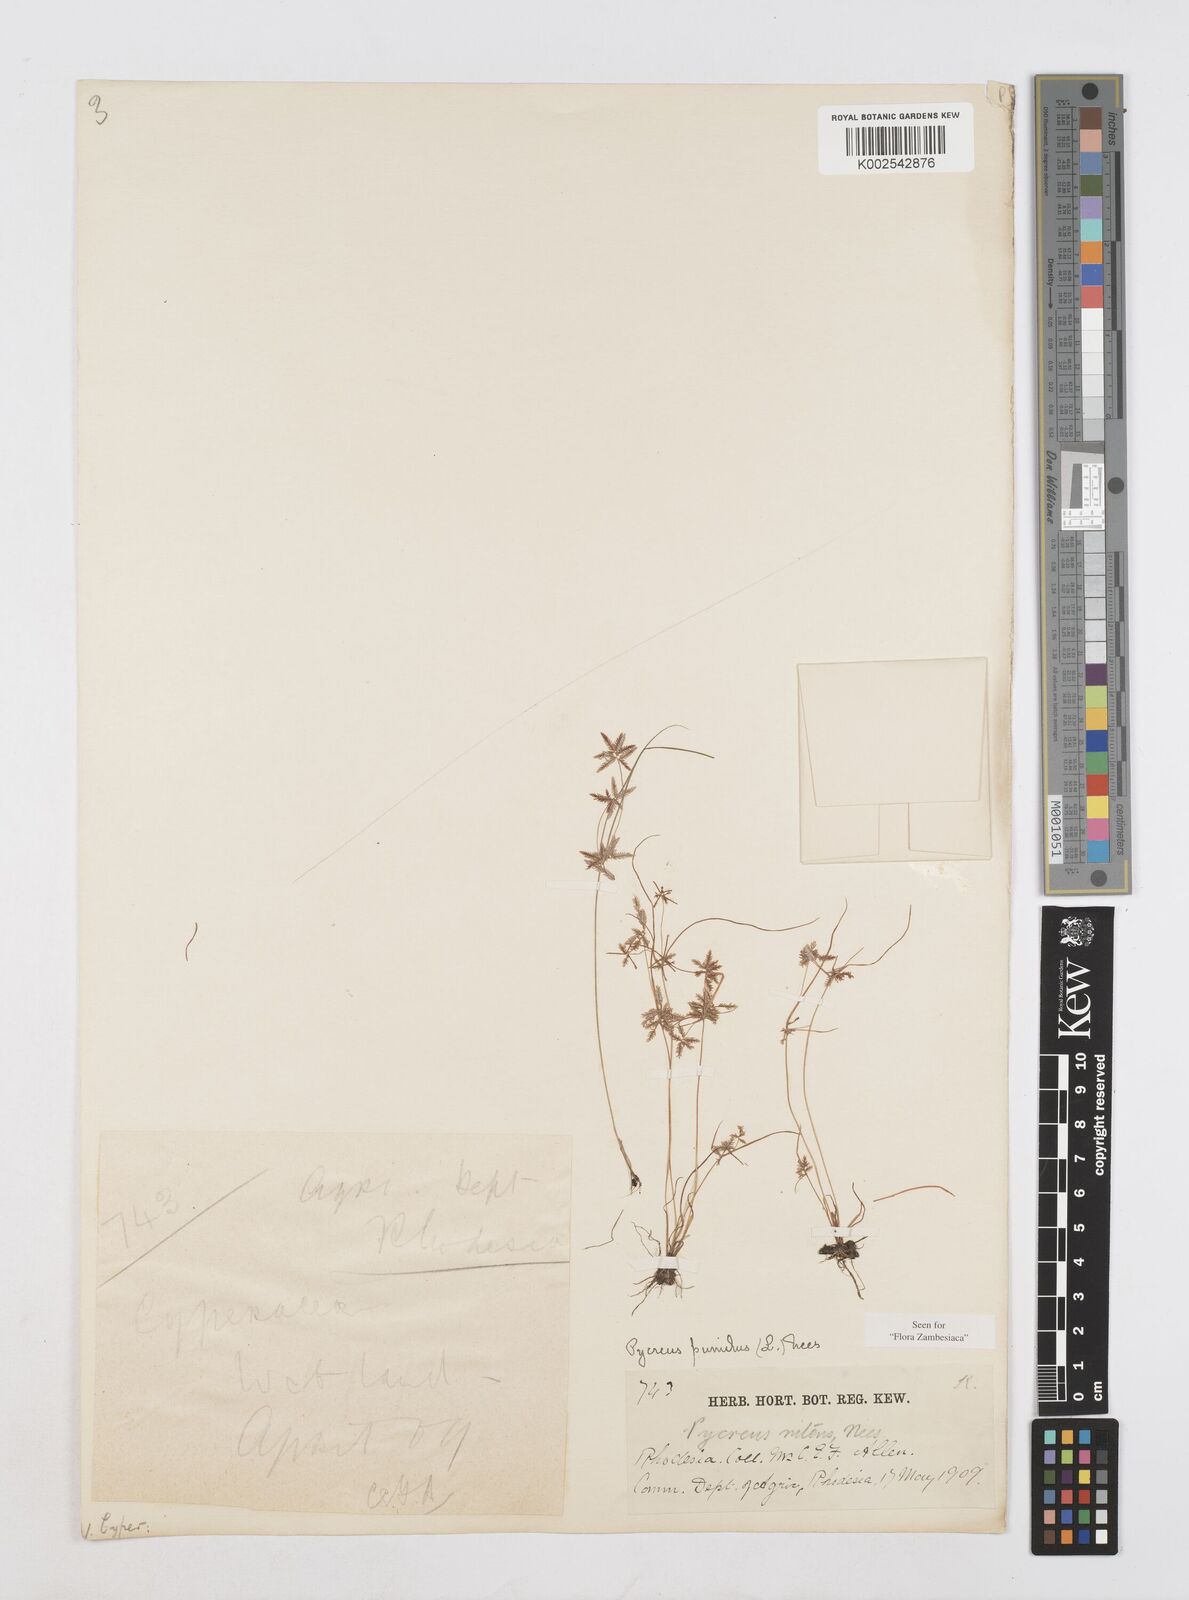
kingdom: Plantae
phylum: Tracheophyta
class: Liliopsida
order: Poales
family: Cyperaceae
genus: Cyperus
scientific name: Cyperus pumilus
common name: Low flatsedge
